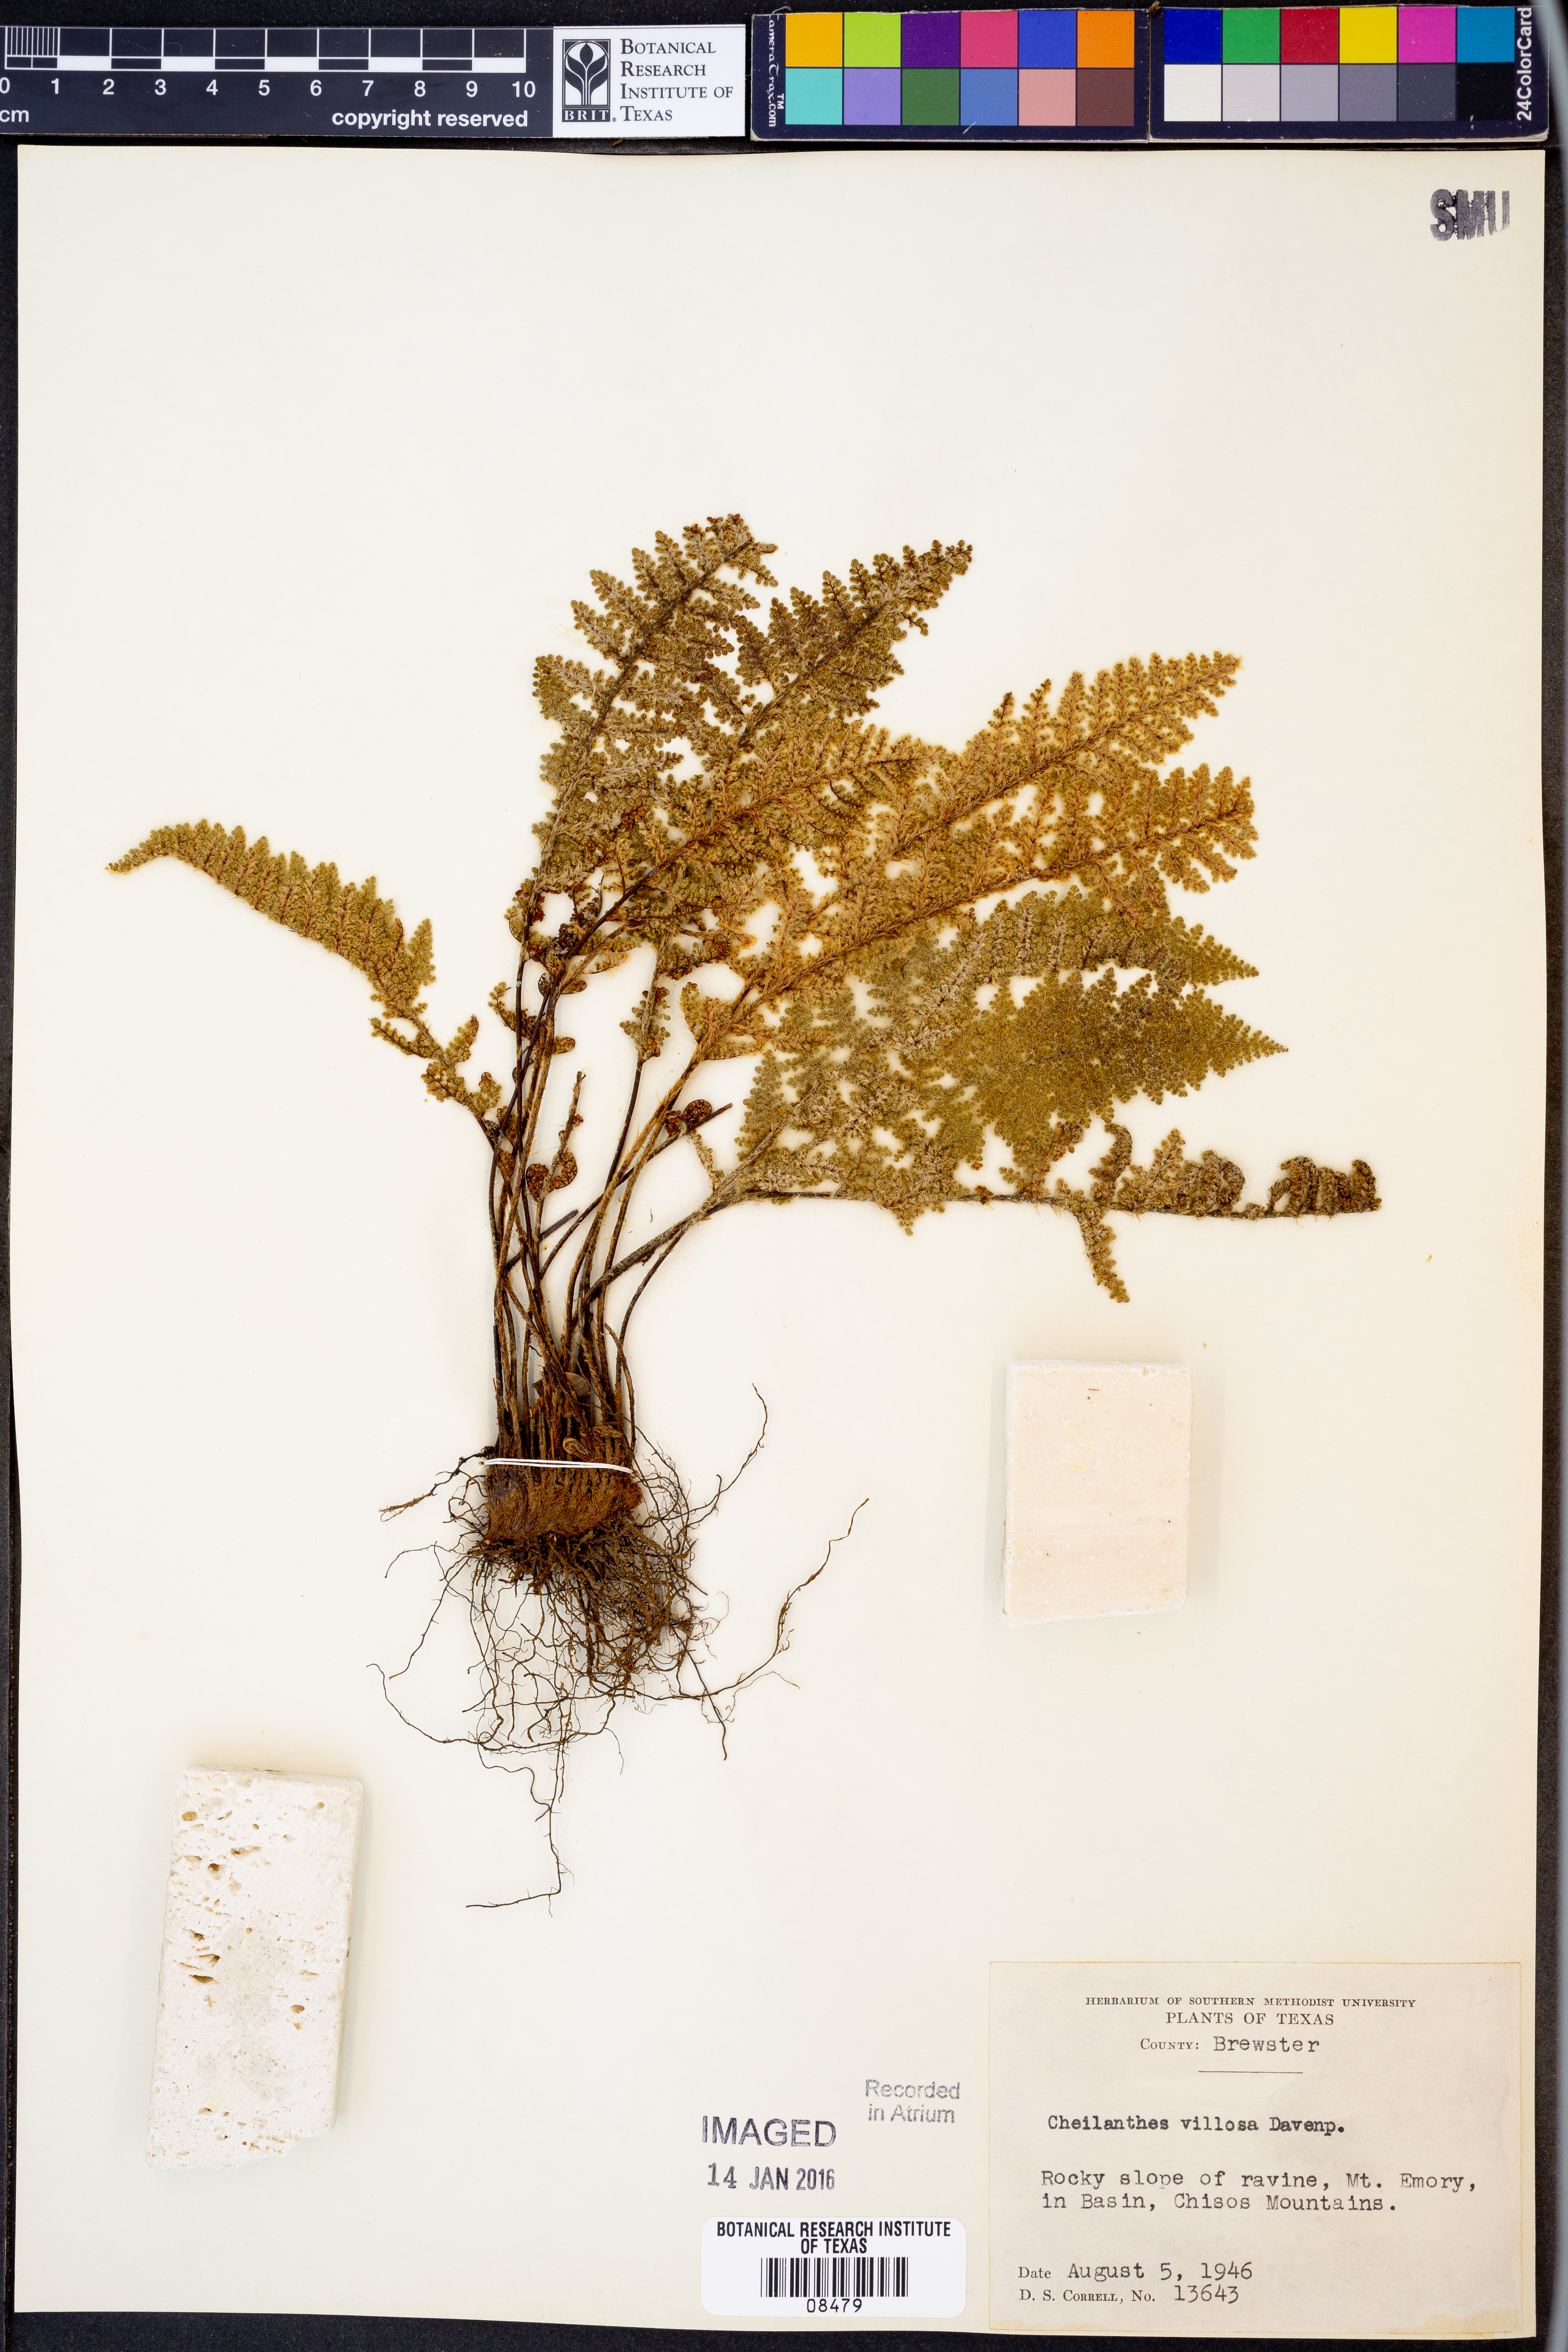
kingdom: Plantae
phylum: Tracheophyta
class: Polypodiopsida
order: Polypodiales
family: Pteridaceae
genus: Myriopteris
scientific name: Myriopteris windhamii
